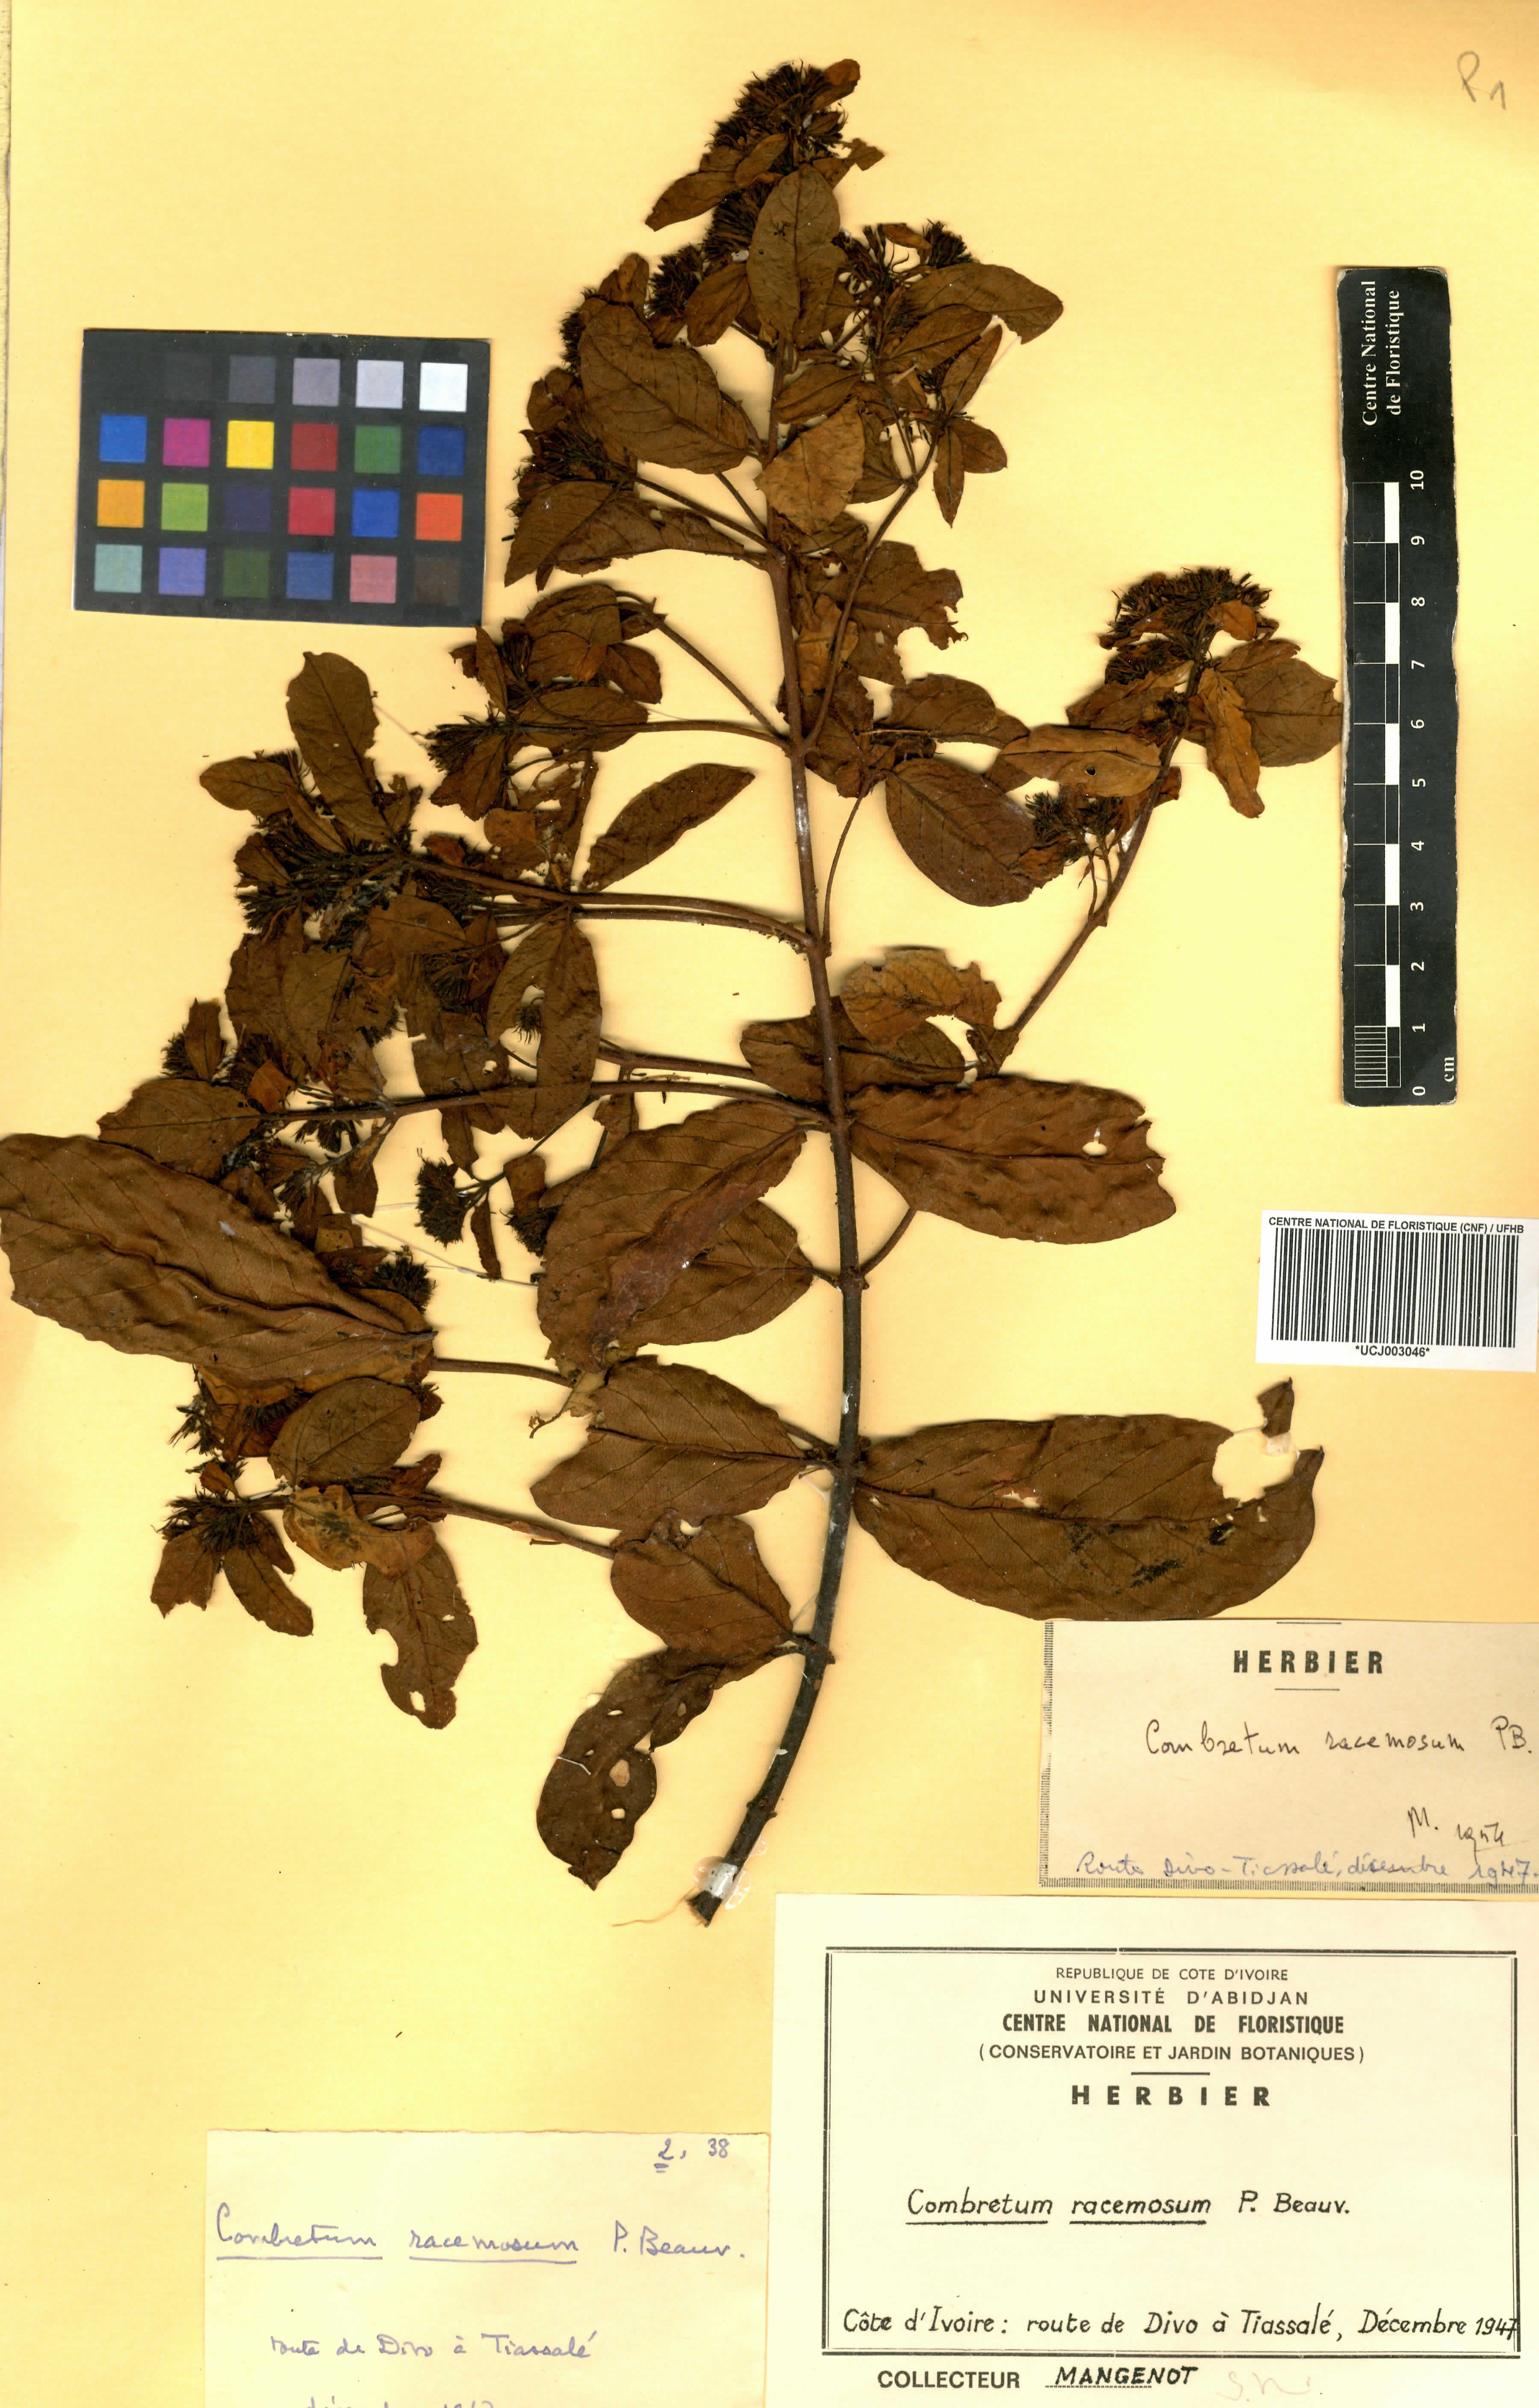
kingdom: Plantae
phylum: Tracheophyta
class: Magnoliopsida
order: Myrtales
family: Combretaceae
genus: Combretum
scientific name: Combretum racemosum
